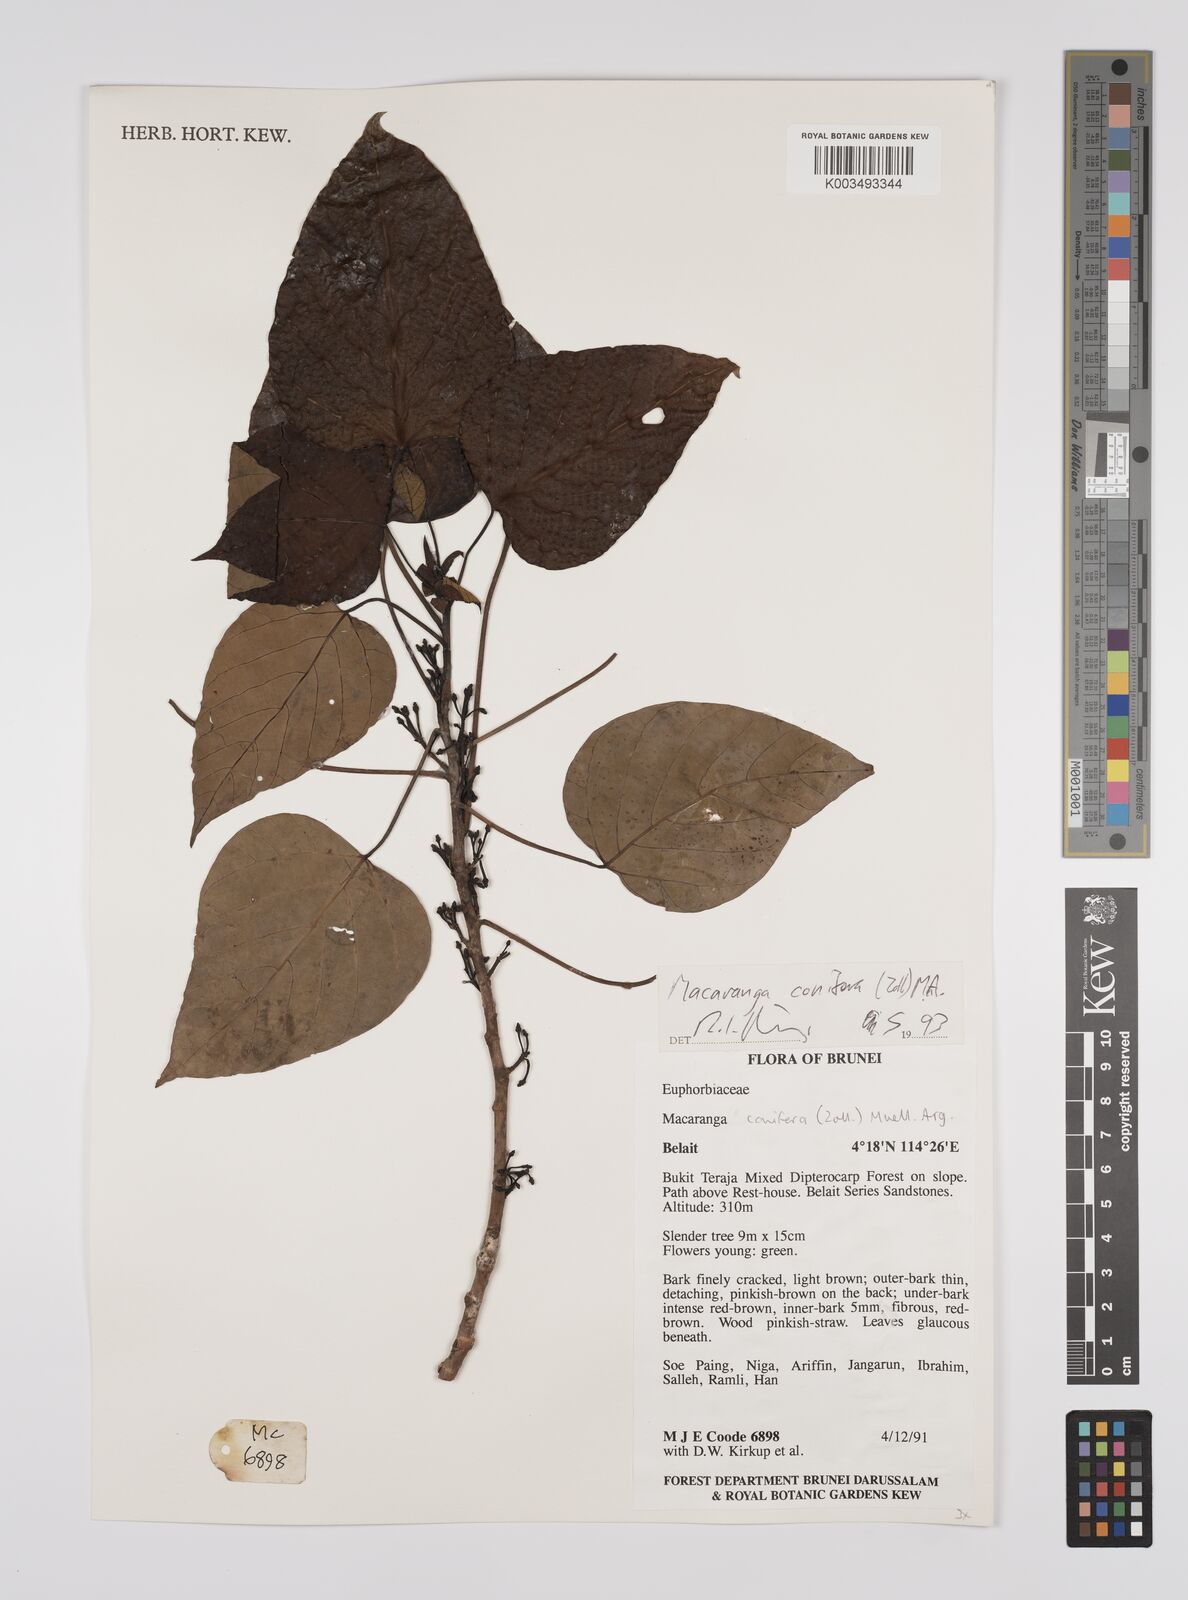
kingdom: Plantae
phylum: Tracheophyta
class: Magnoliopsida
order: Malpighiales
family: Euphorbiaceae
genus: Macaranga
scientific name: Macaranga conifera
